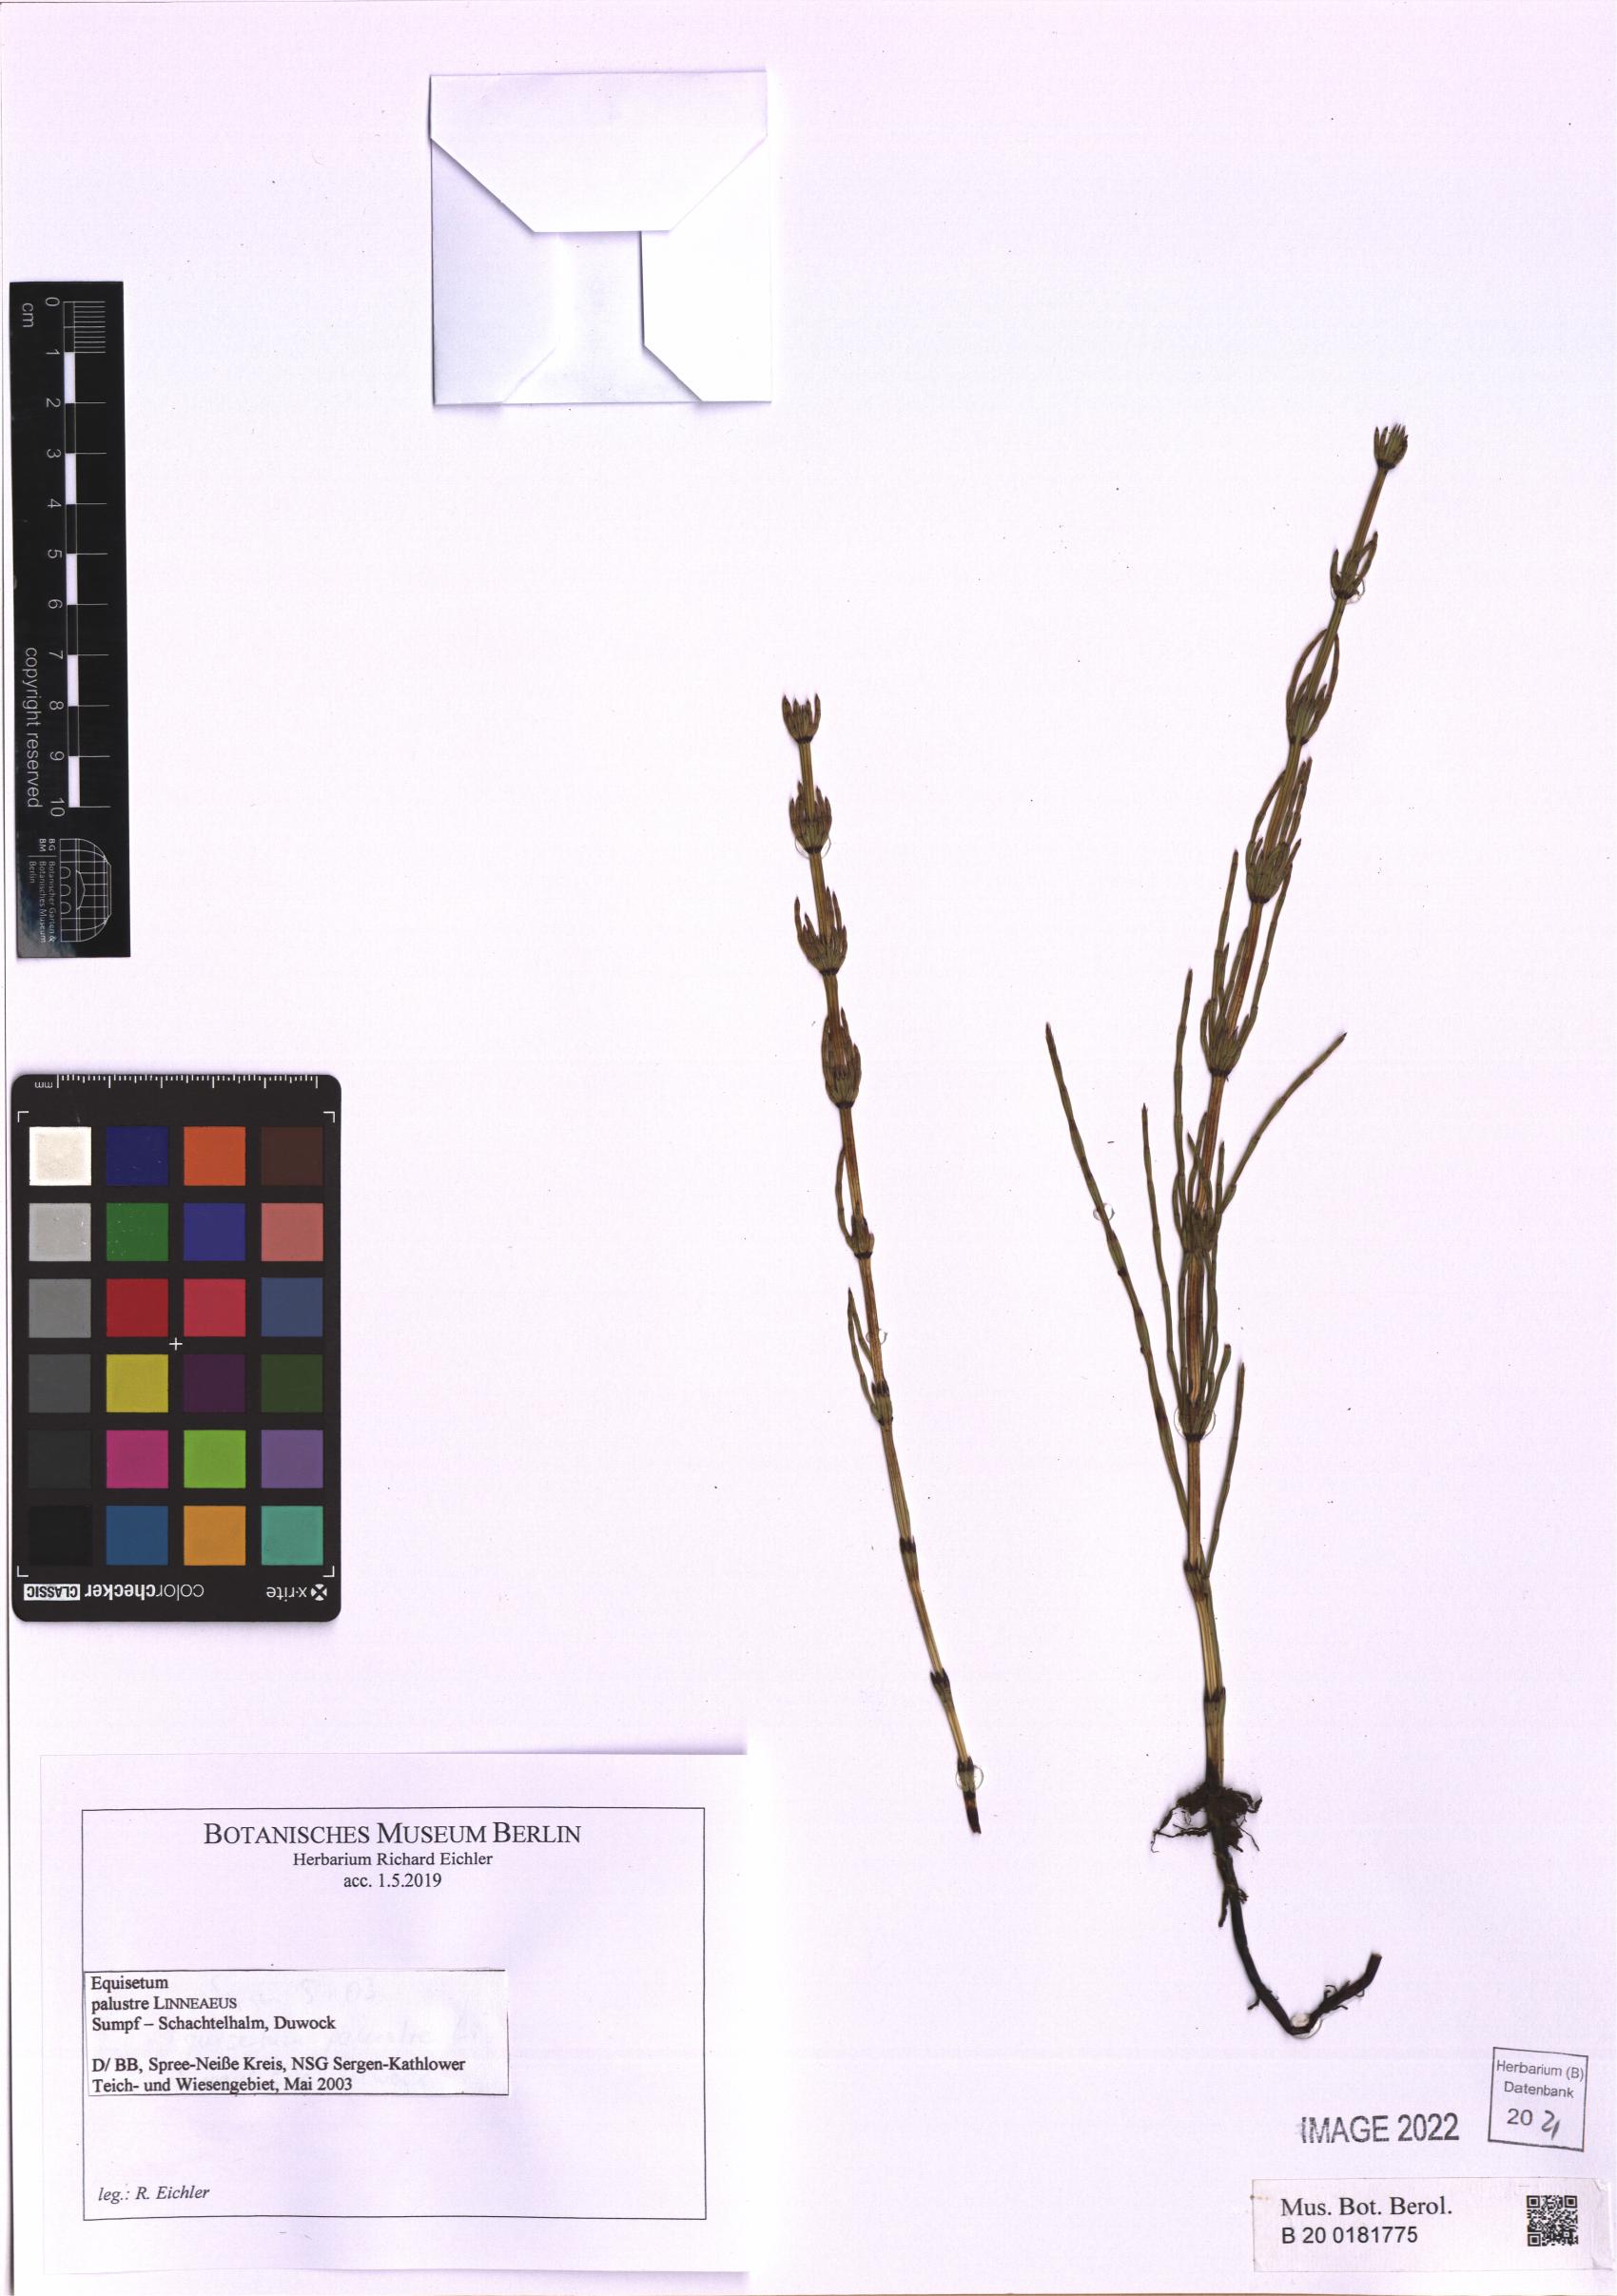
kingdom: Plantae
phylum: Tracheophyta
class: Polypodiopsida
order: Equisetales
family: Equisetaceae
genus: Equisetum
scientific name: Equisetum palustre
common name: Marsh horsetail
